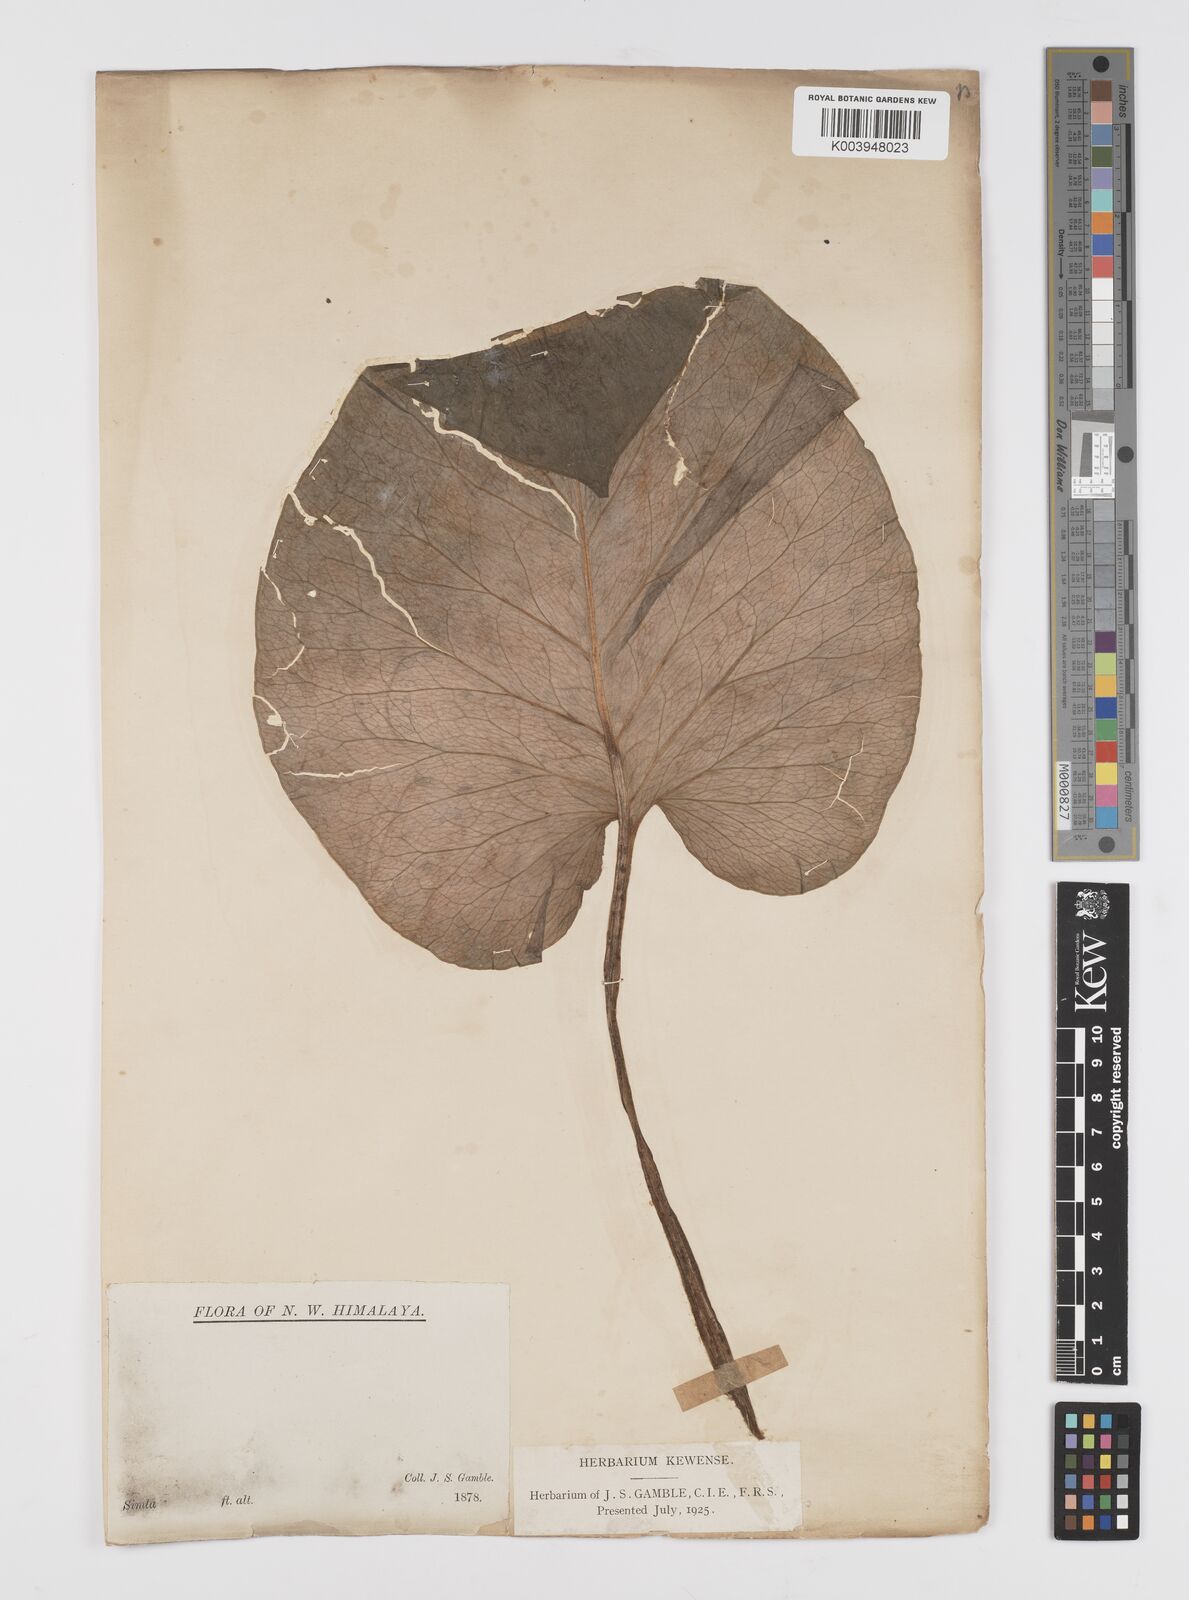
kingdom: Plantae
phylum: Tracheophyta
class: Liliopsida
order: Liliales
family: Liliaceae
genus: Cardiocrinum
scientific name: Cardiocrinum giganteum
